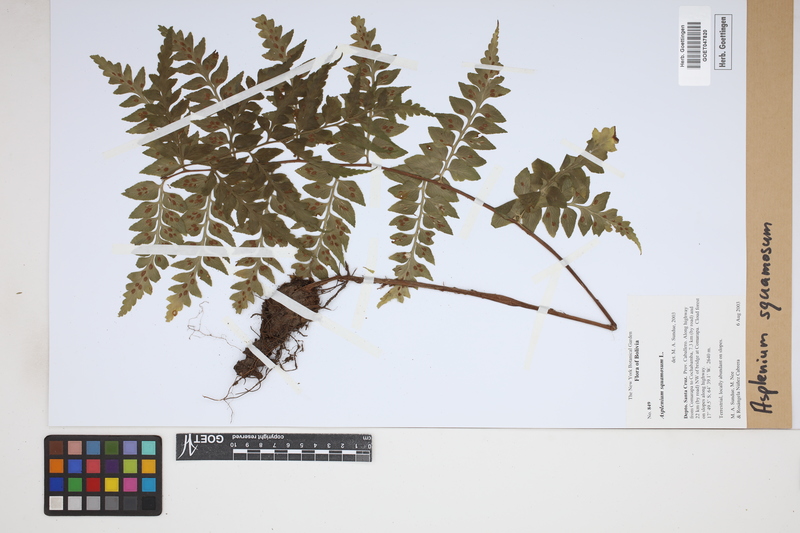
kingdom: Plantae
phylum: Tracheophyta
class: Polypodiopsida
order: Polypodiales
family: Aspleniaceae
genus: Asplenium
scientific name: Asplenium squamosum
